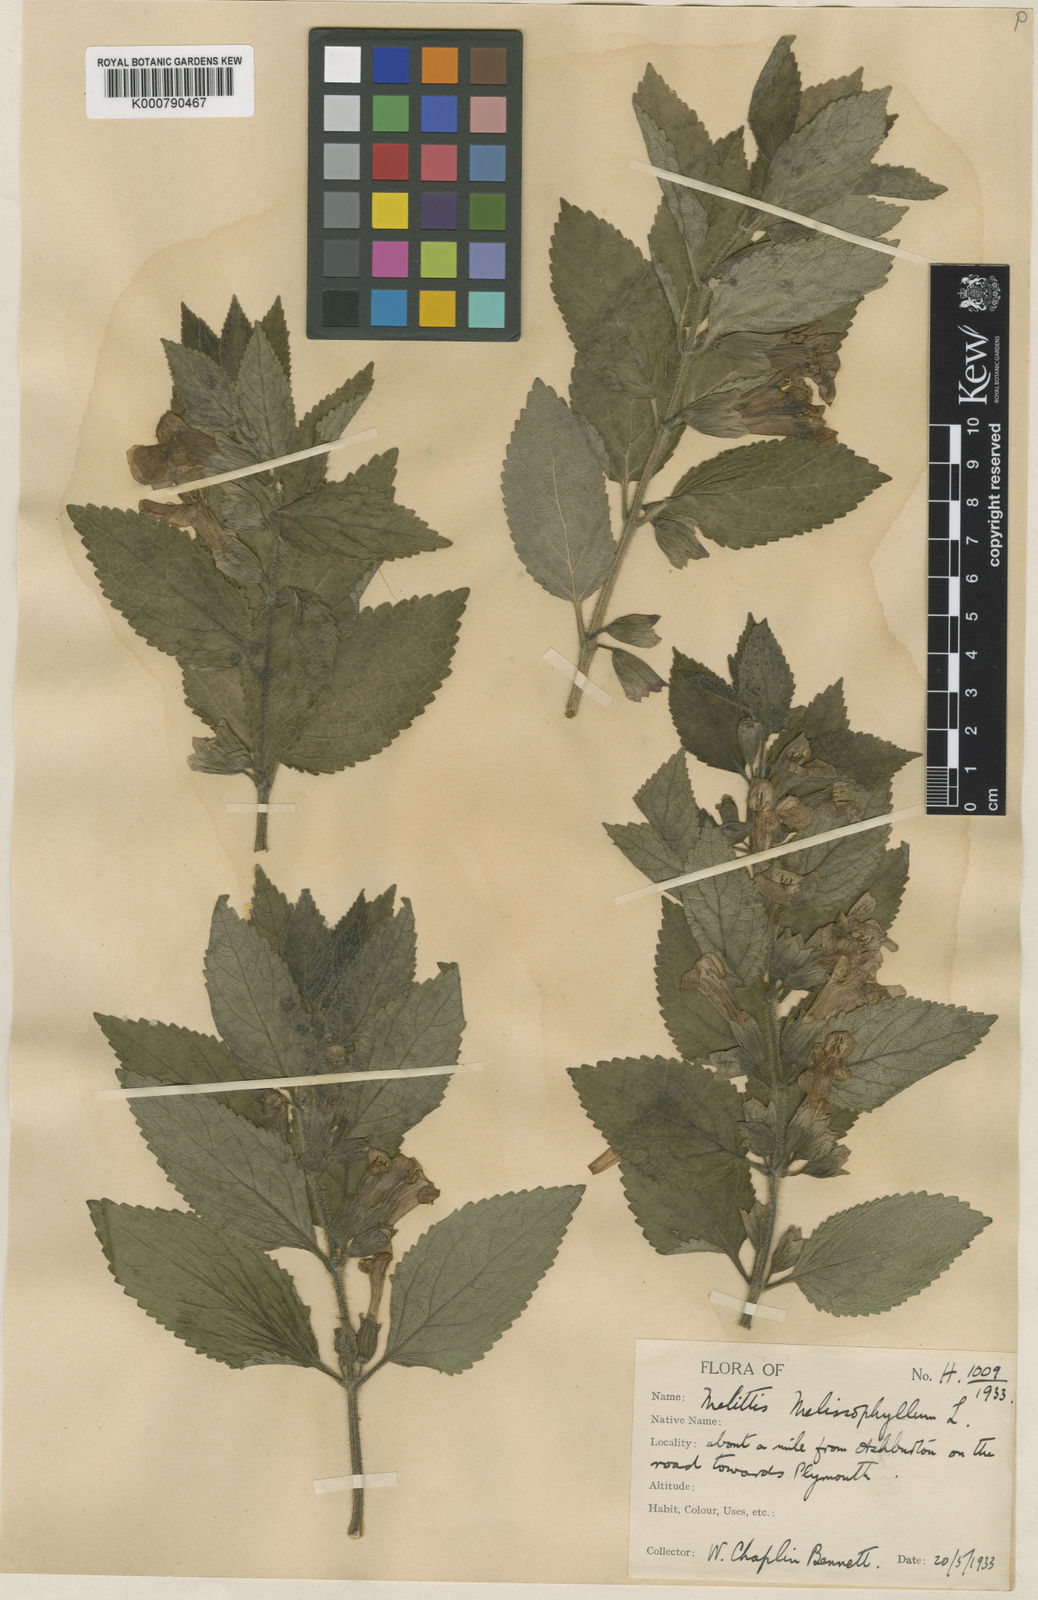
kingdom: Plantae
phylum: Tracheophyta
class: Magnoliopsida
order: Lamiales
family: Lamiaceae
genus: Melittis
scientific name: Melittis melissophyllum
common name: Bastard balm
